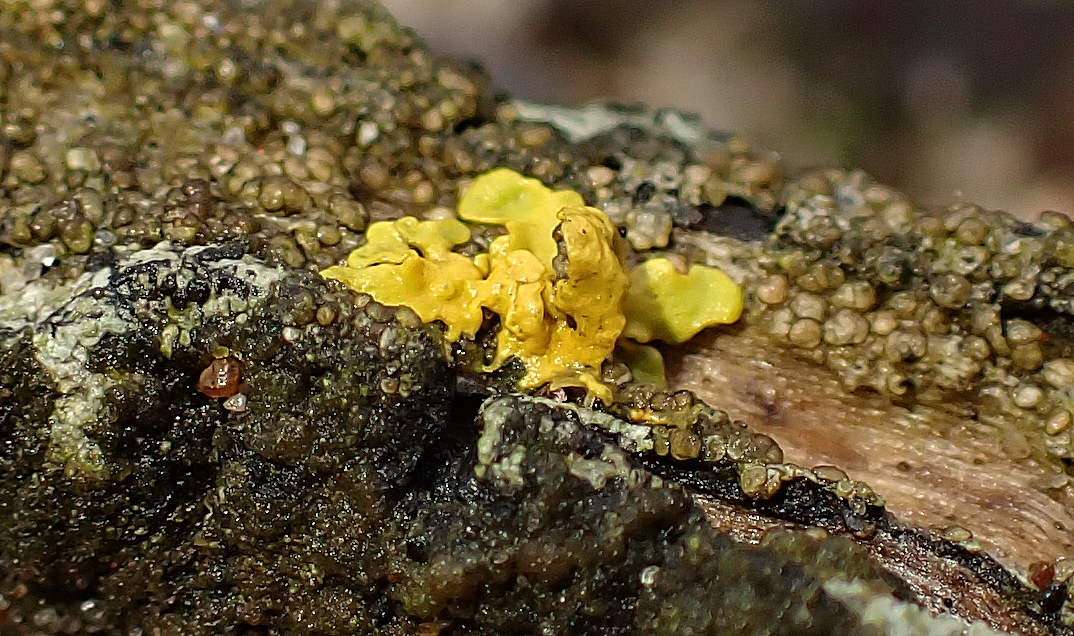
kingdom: Fungi
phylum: Ascomycota
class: Lecanoromycetes
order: Teloschistales
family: Teloschistaceae
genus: Xanthoria
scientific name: Xanthoria parietina
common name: almindelig væggelav
